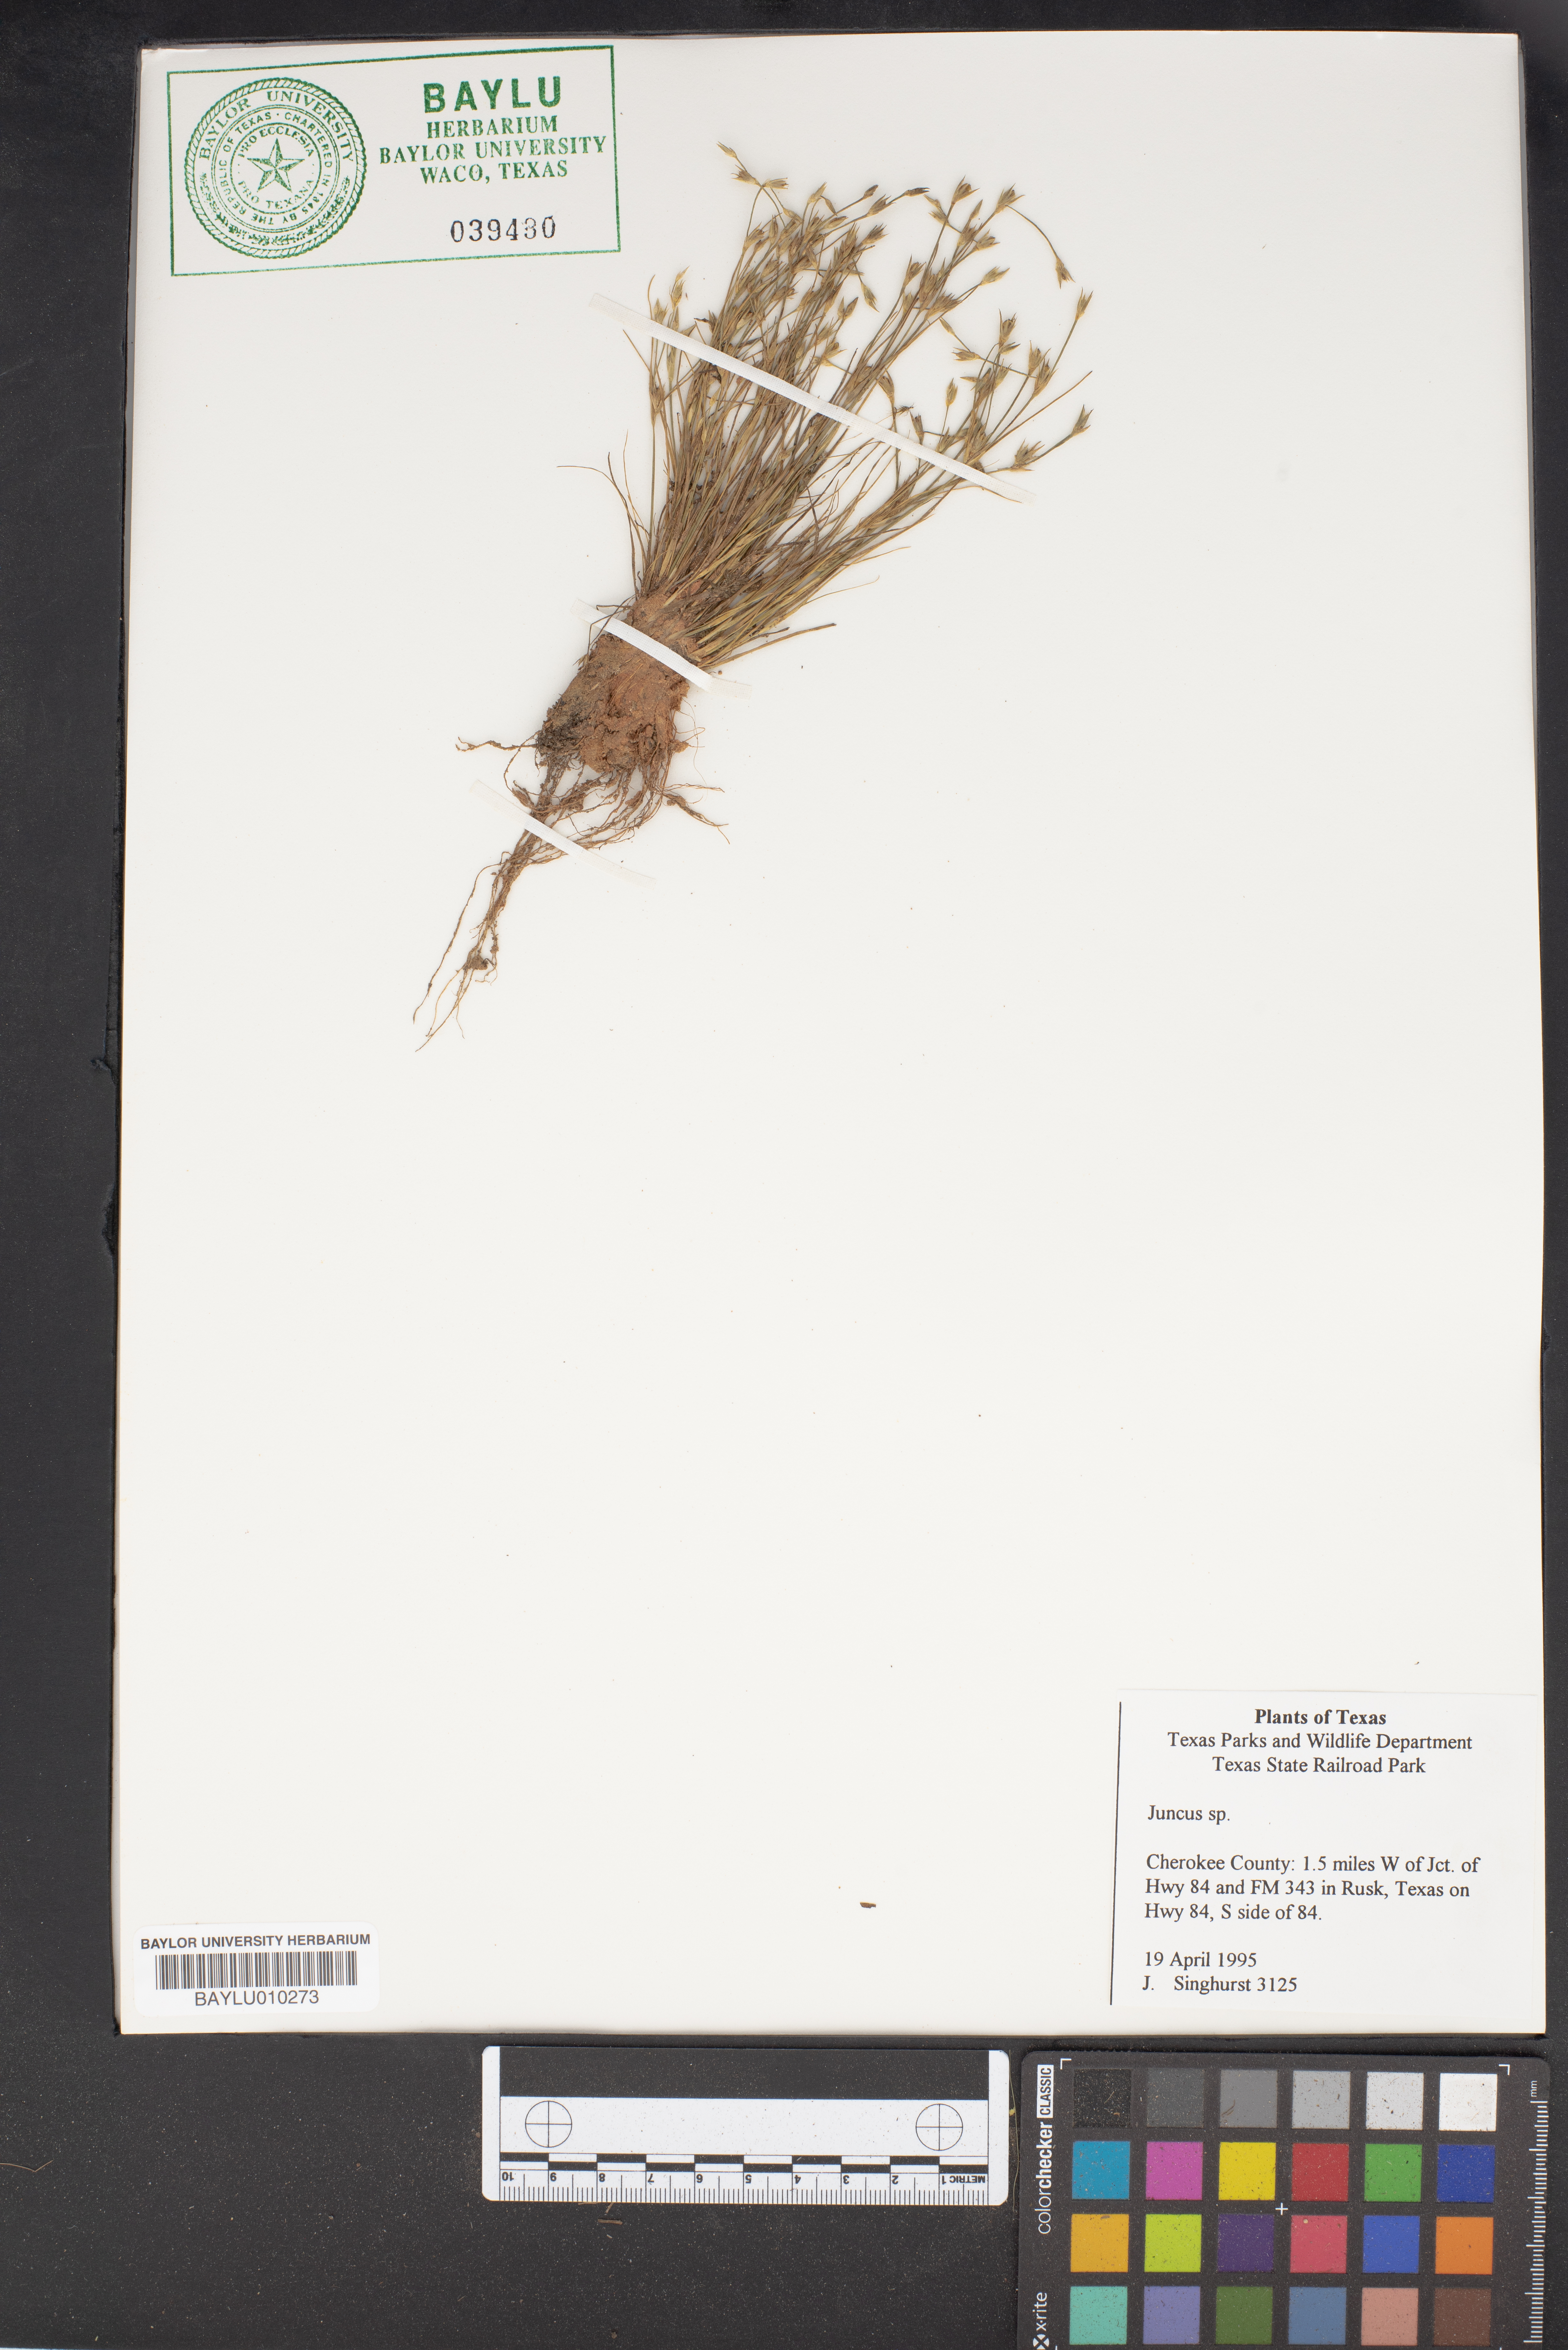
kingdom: Plantae
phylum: Tracheophyta
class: Liliopsida
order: Poales
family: Juncaceae
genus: Juncus
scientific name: Juncus
